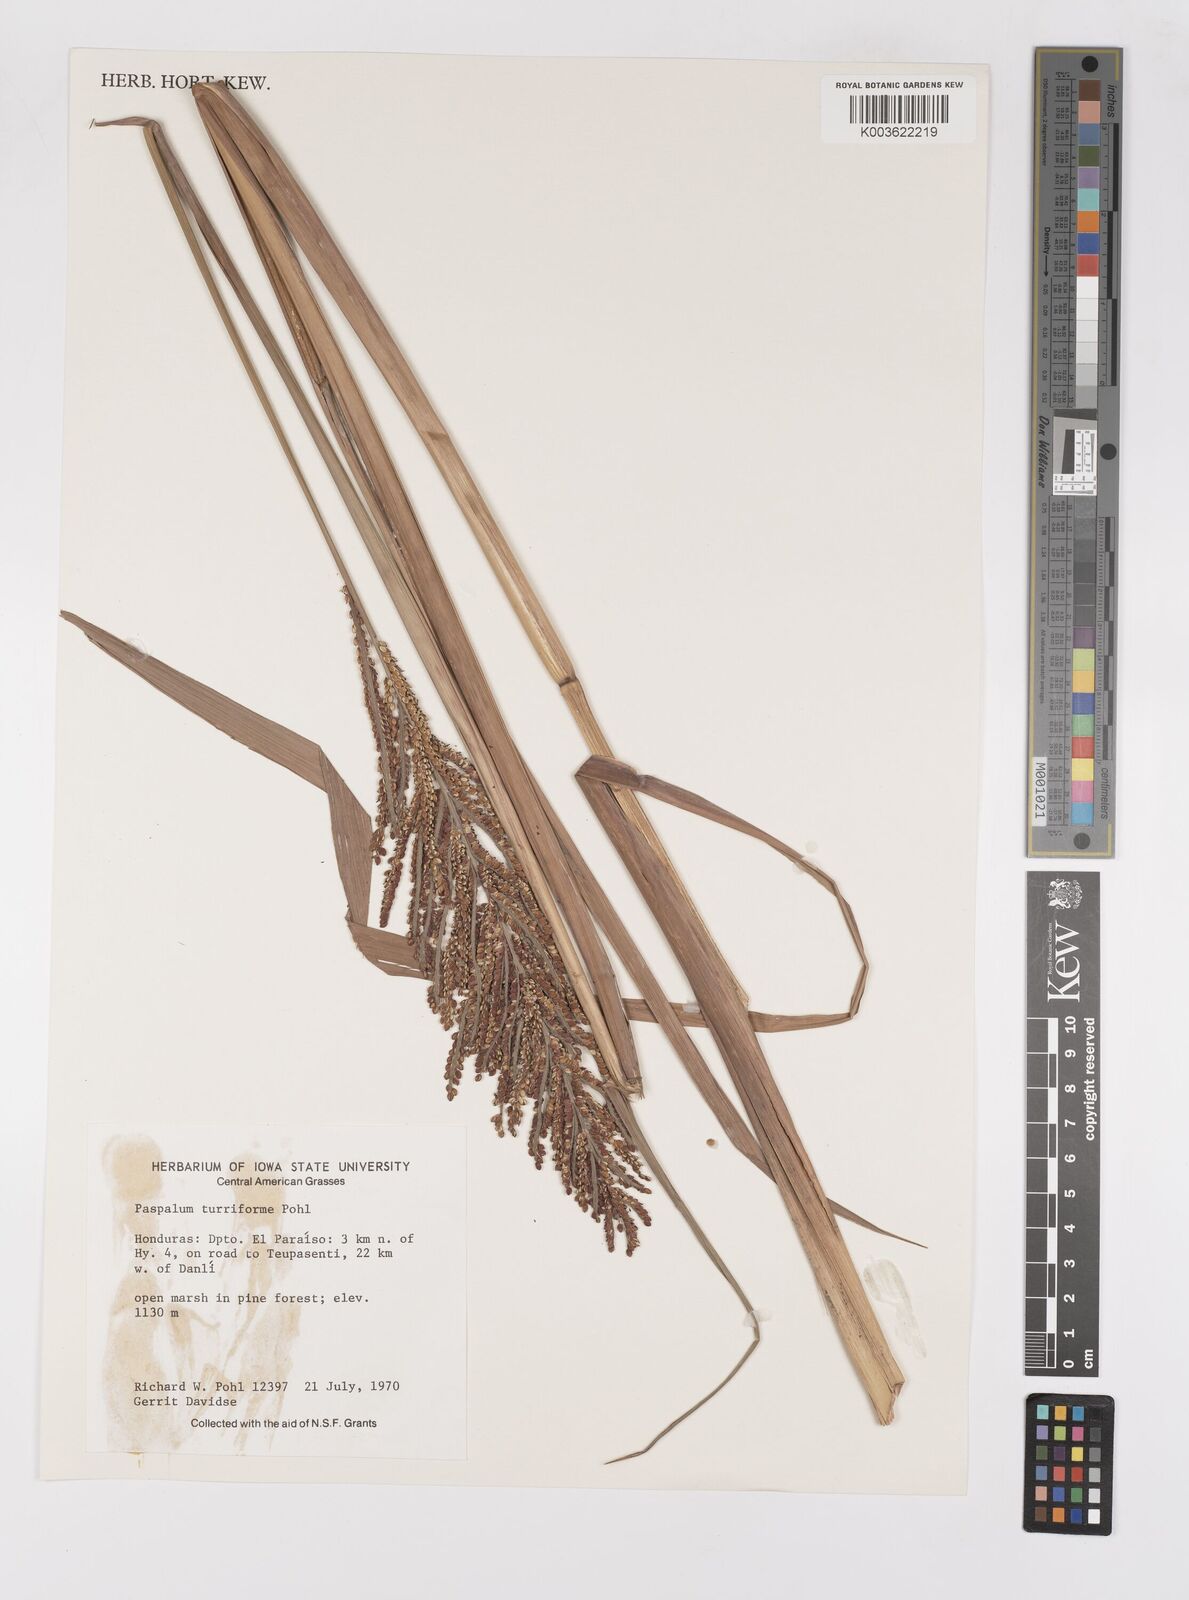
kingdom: Plantae
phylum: Tracheophyta
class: Liliopsida
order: Poales
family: Poaceae
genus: Paspalum
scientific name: Paspalum turriforme
